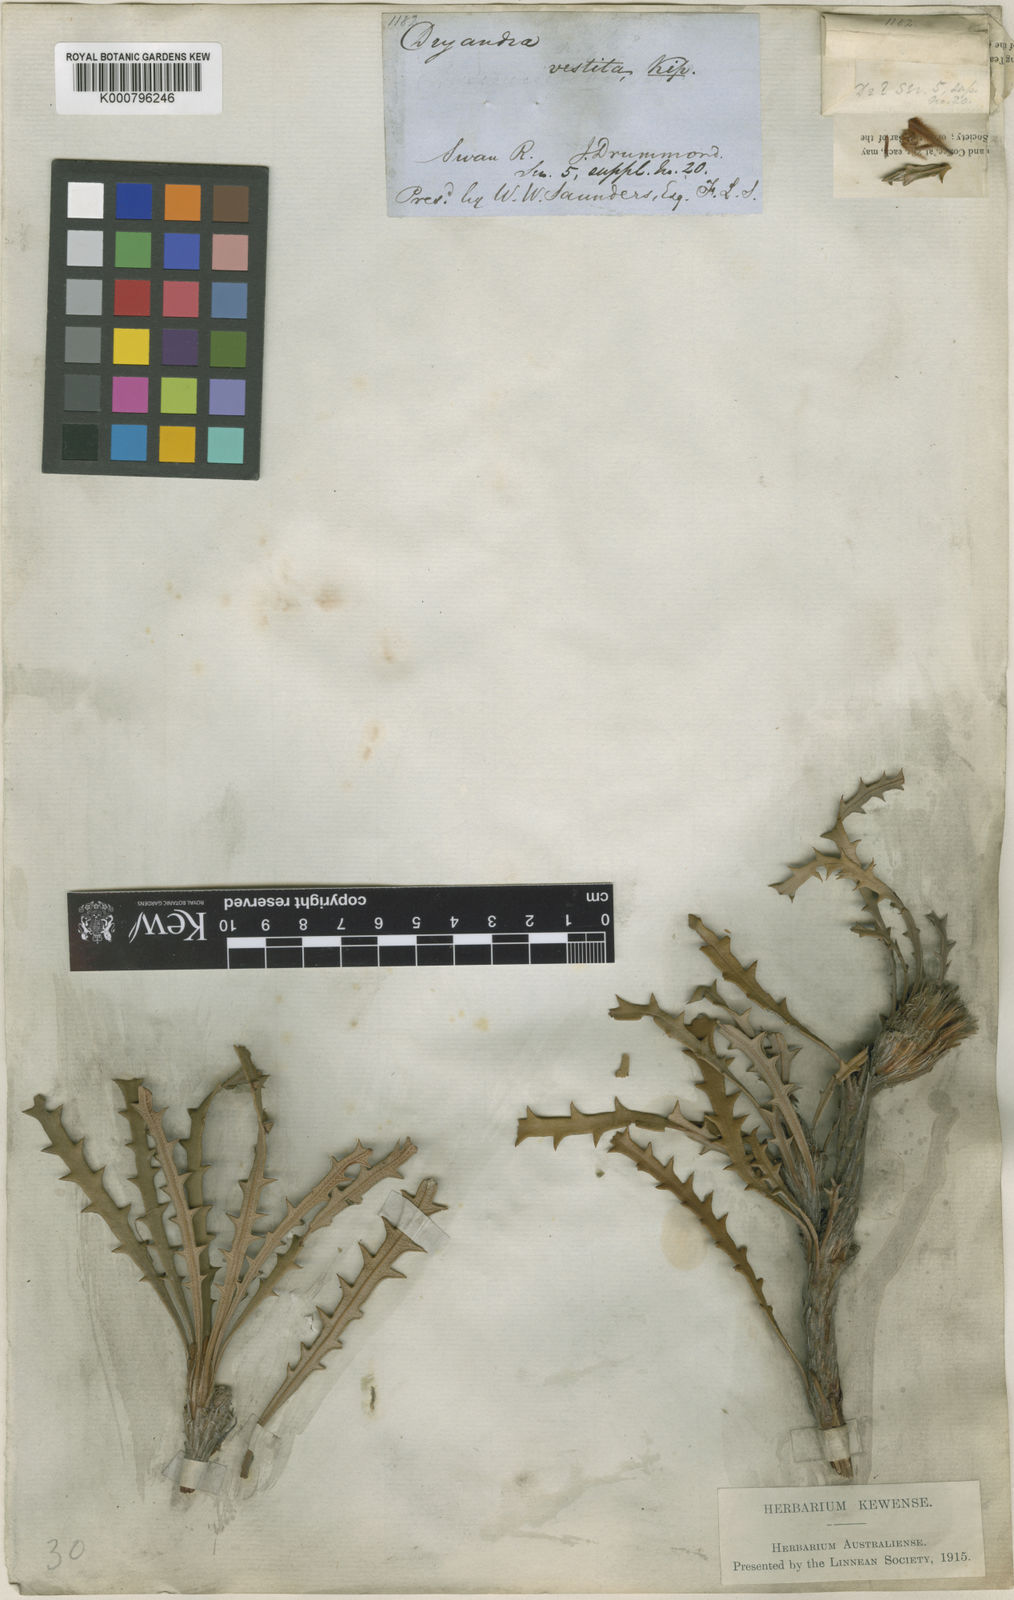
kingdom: Plantae
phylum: Tracheophyta
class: Magnoliopsida
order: Malpighiales
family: Euphorbiaceae
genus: Vernicia
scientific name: Vernicia
